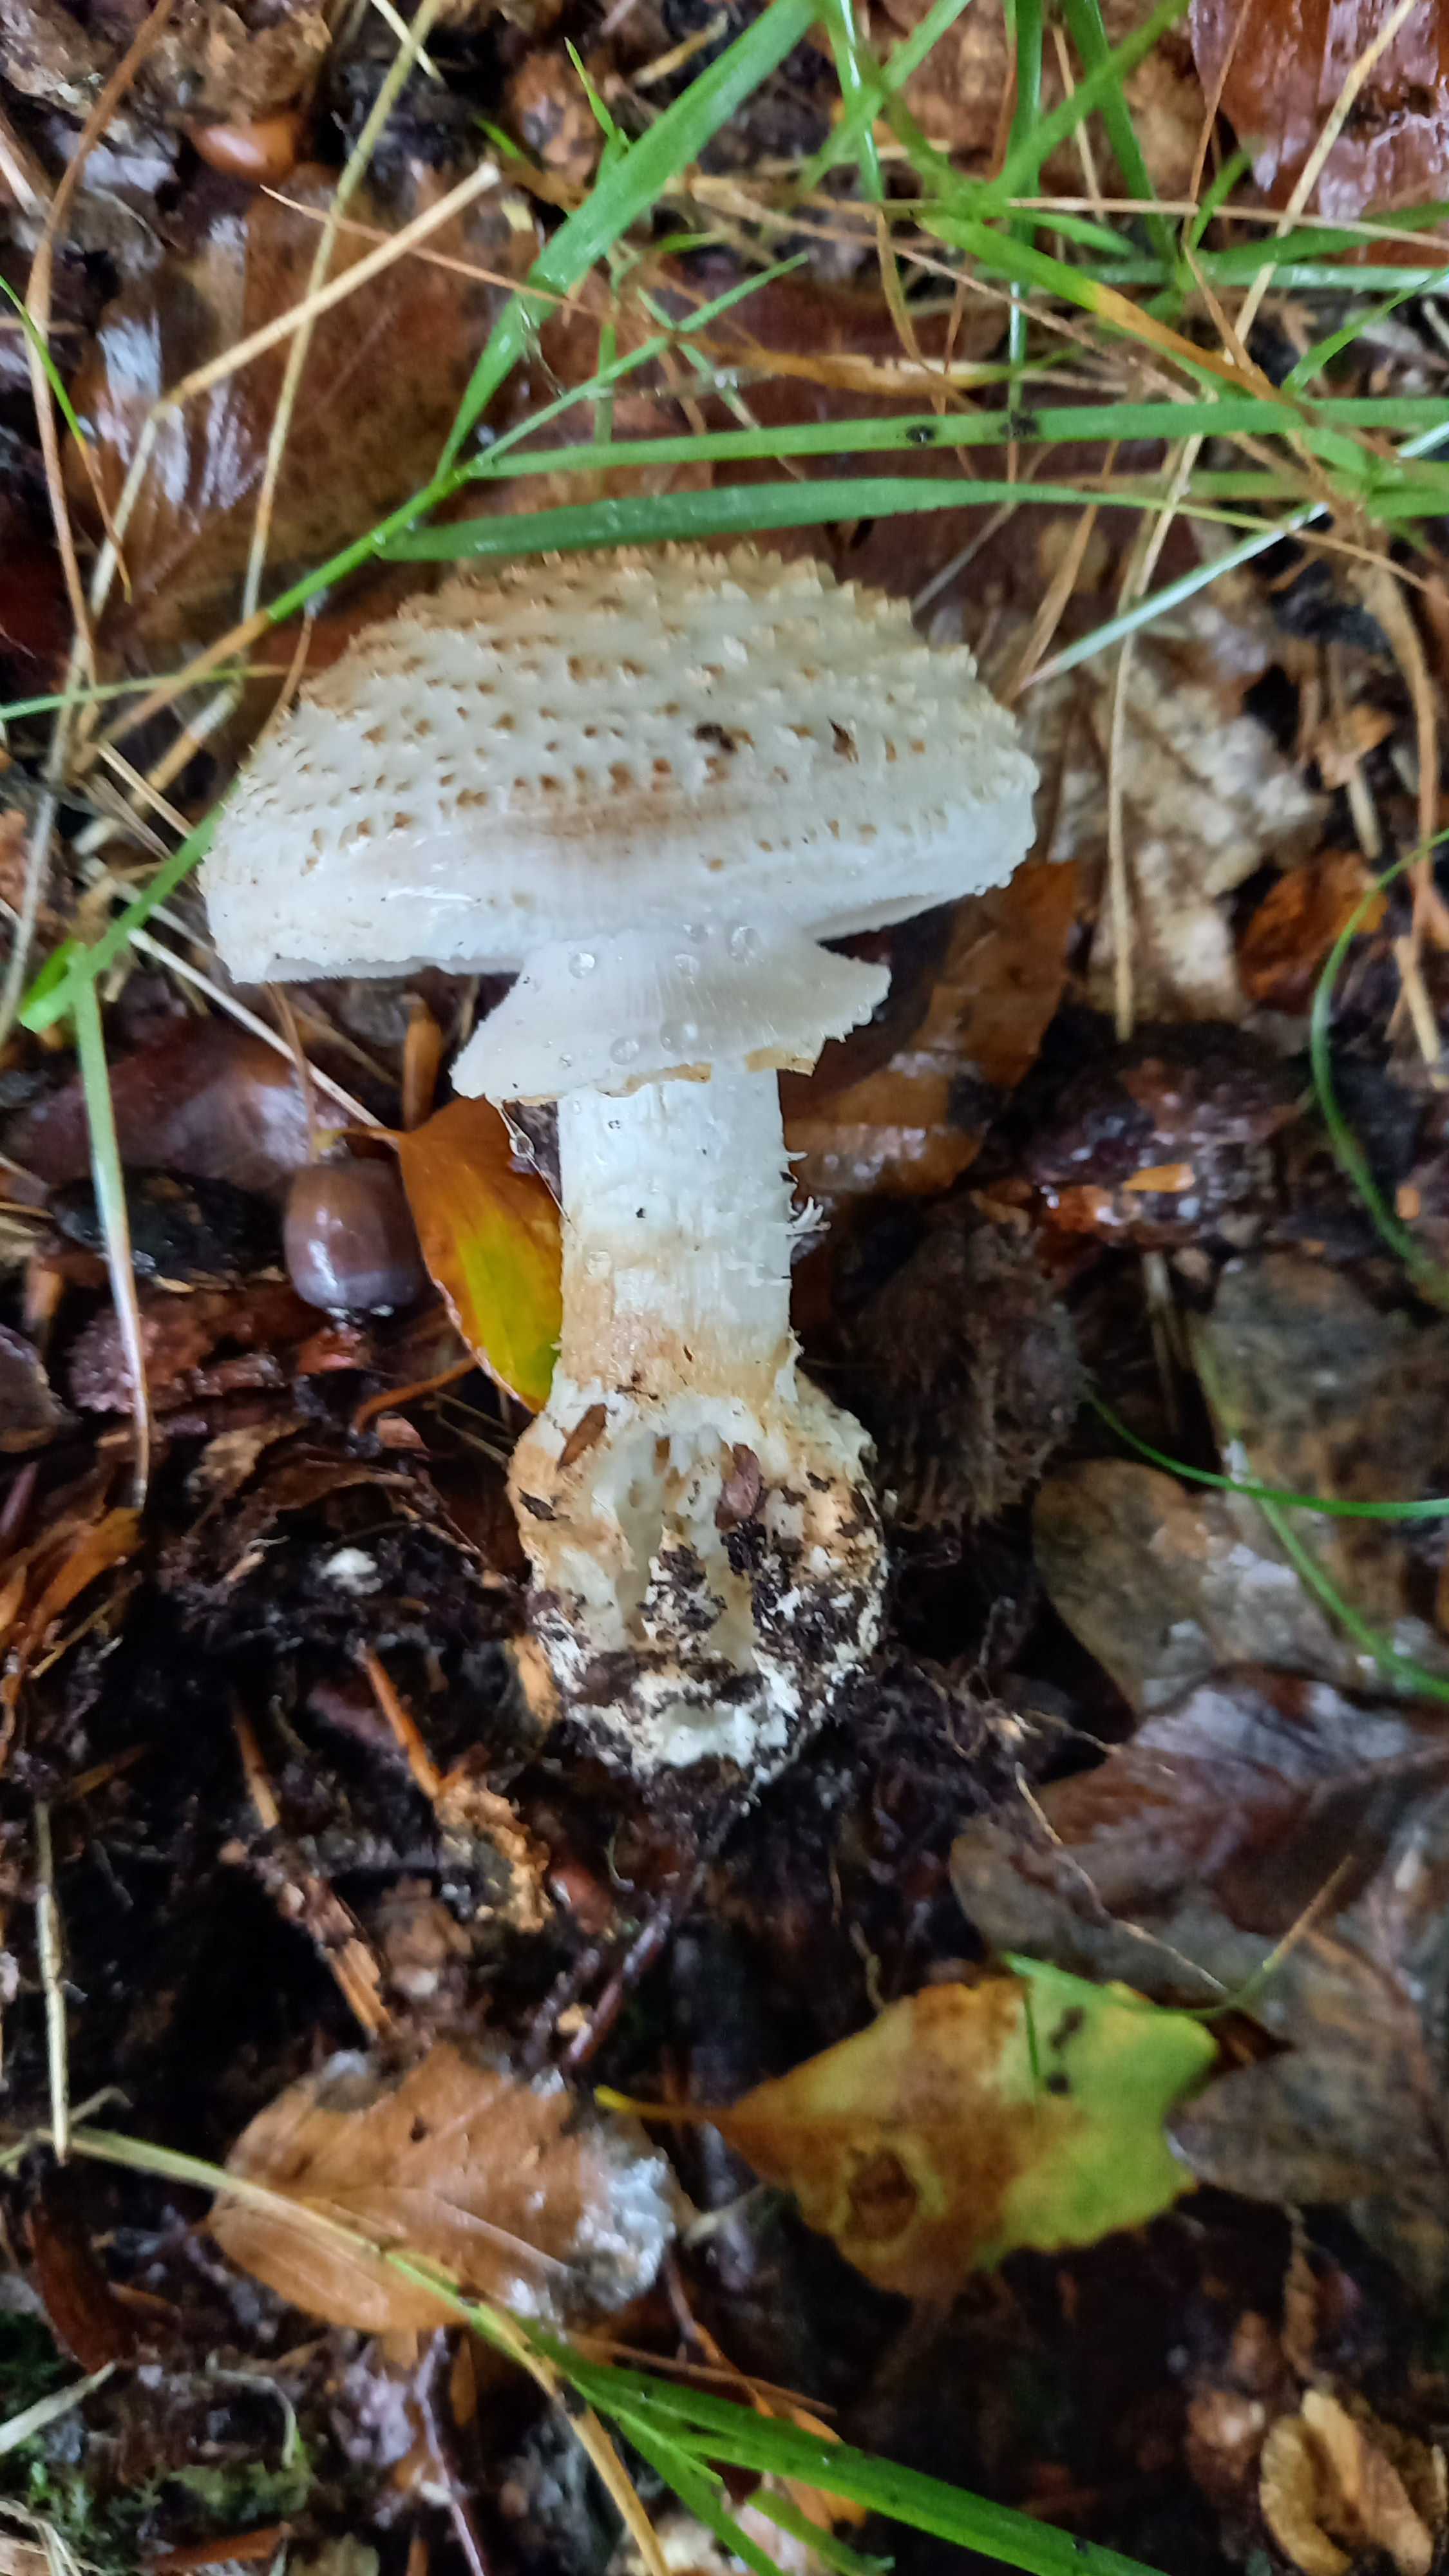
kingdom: Fungi
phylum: Basidiomycota
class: Agaricomycetes
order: Agaricales
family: Amanitaceae
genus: Amanita
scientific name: Amanita citrina
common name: kugleknoldet fluesvamp
